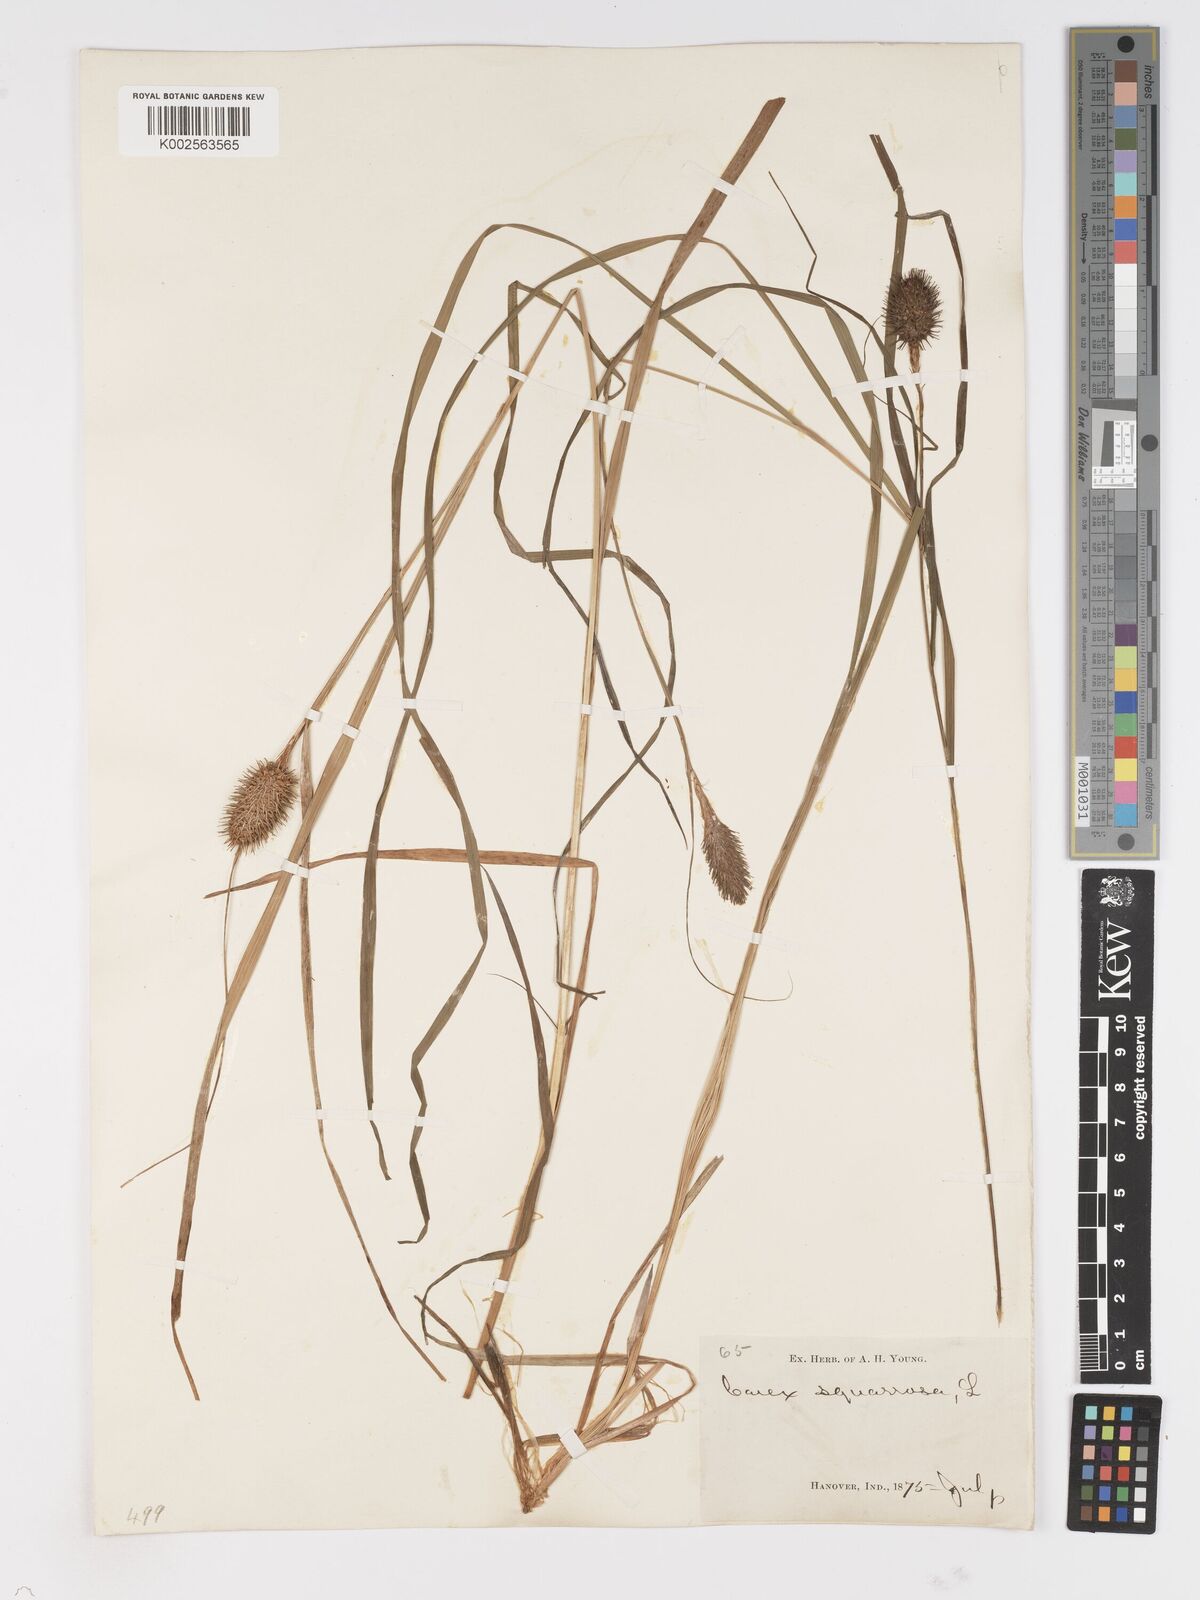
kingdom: Plantae
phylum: Tracheophyta
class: Liliopsida
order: Poales
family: Cyperaceae
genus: Carex
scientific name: Carex squarrosa
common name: Narrow-leaved cattail sedge
